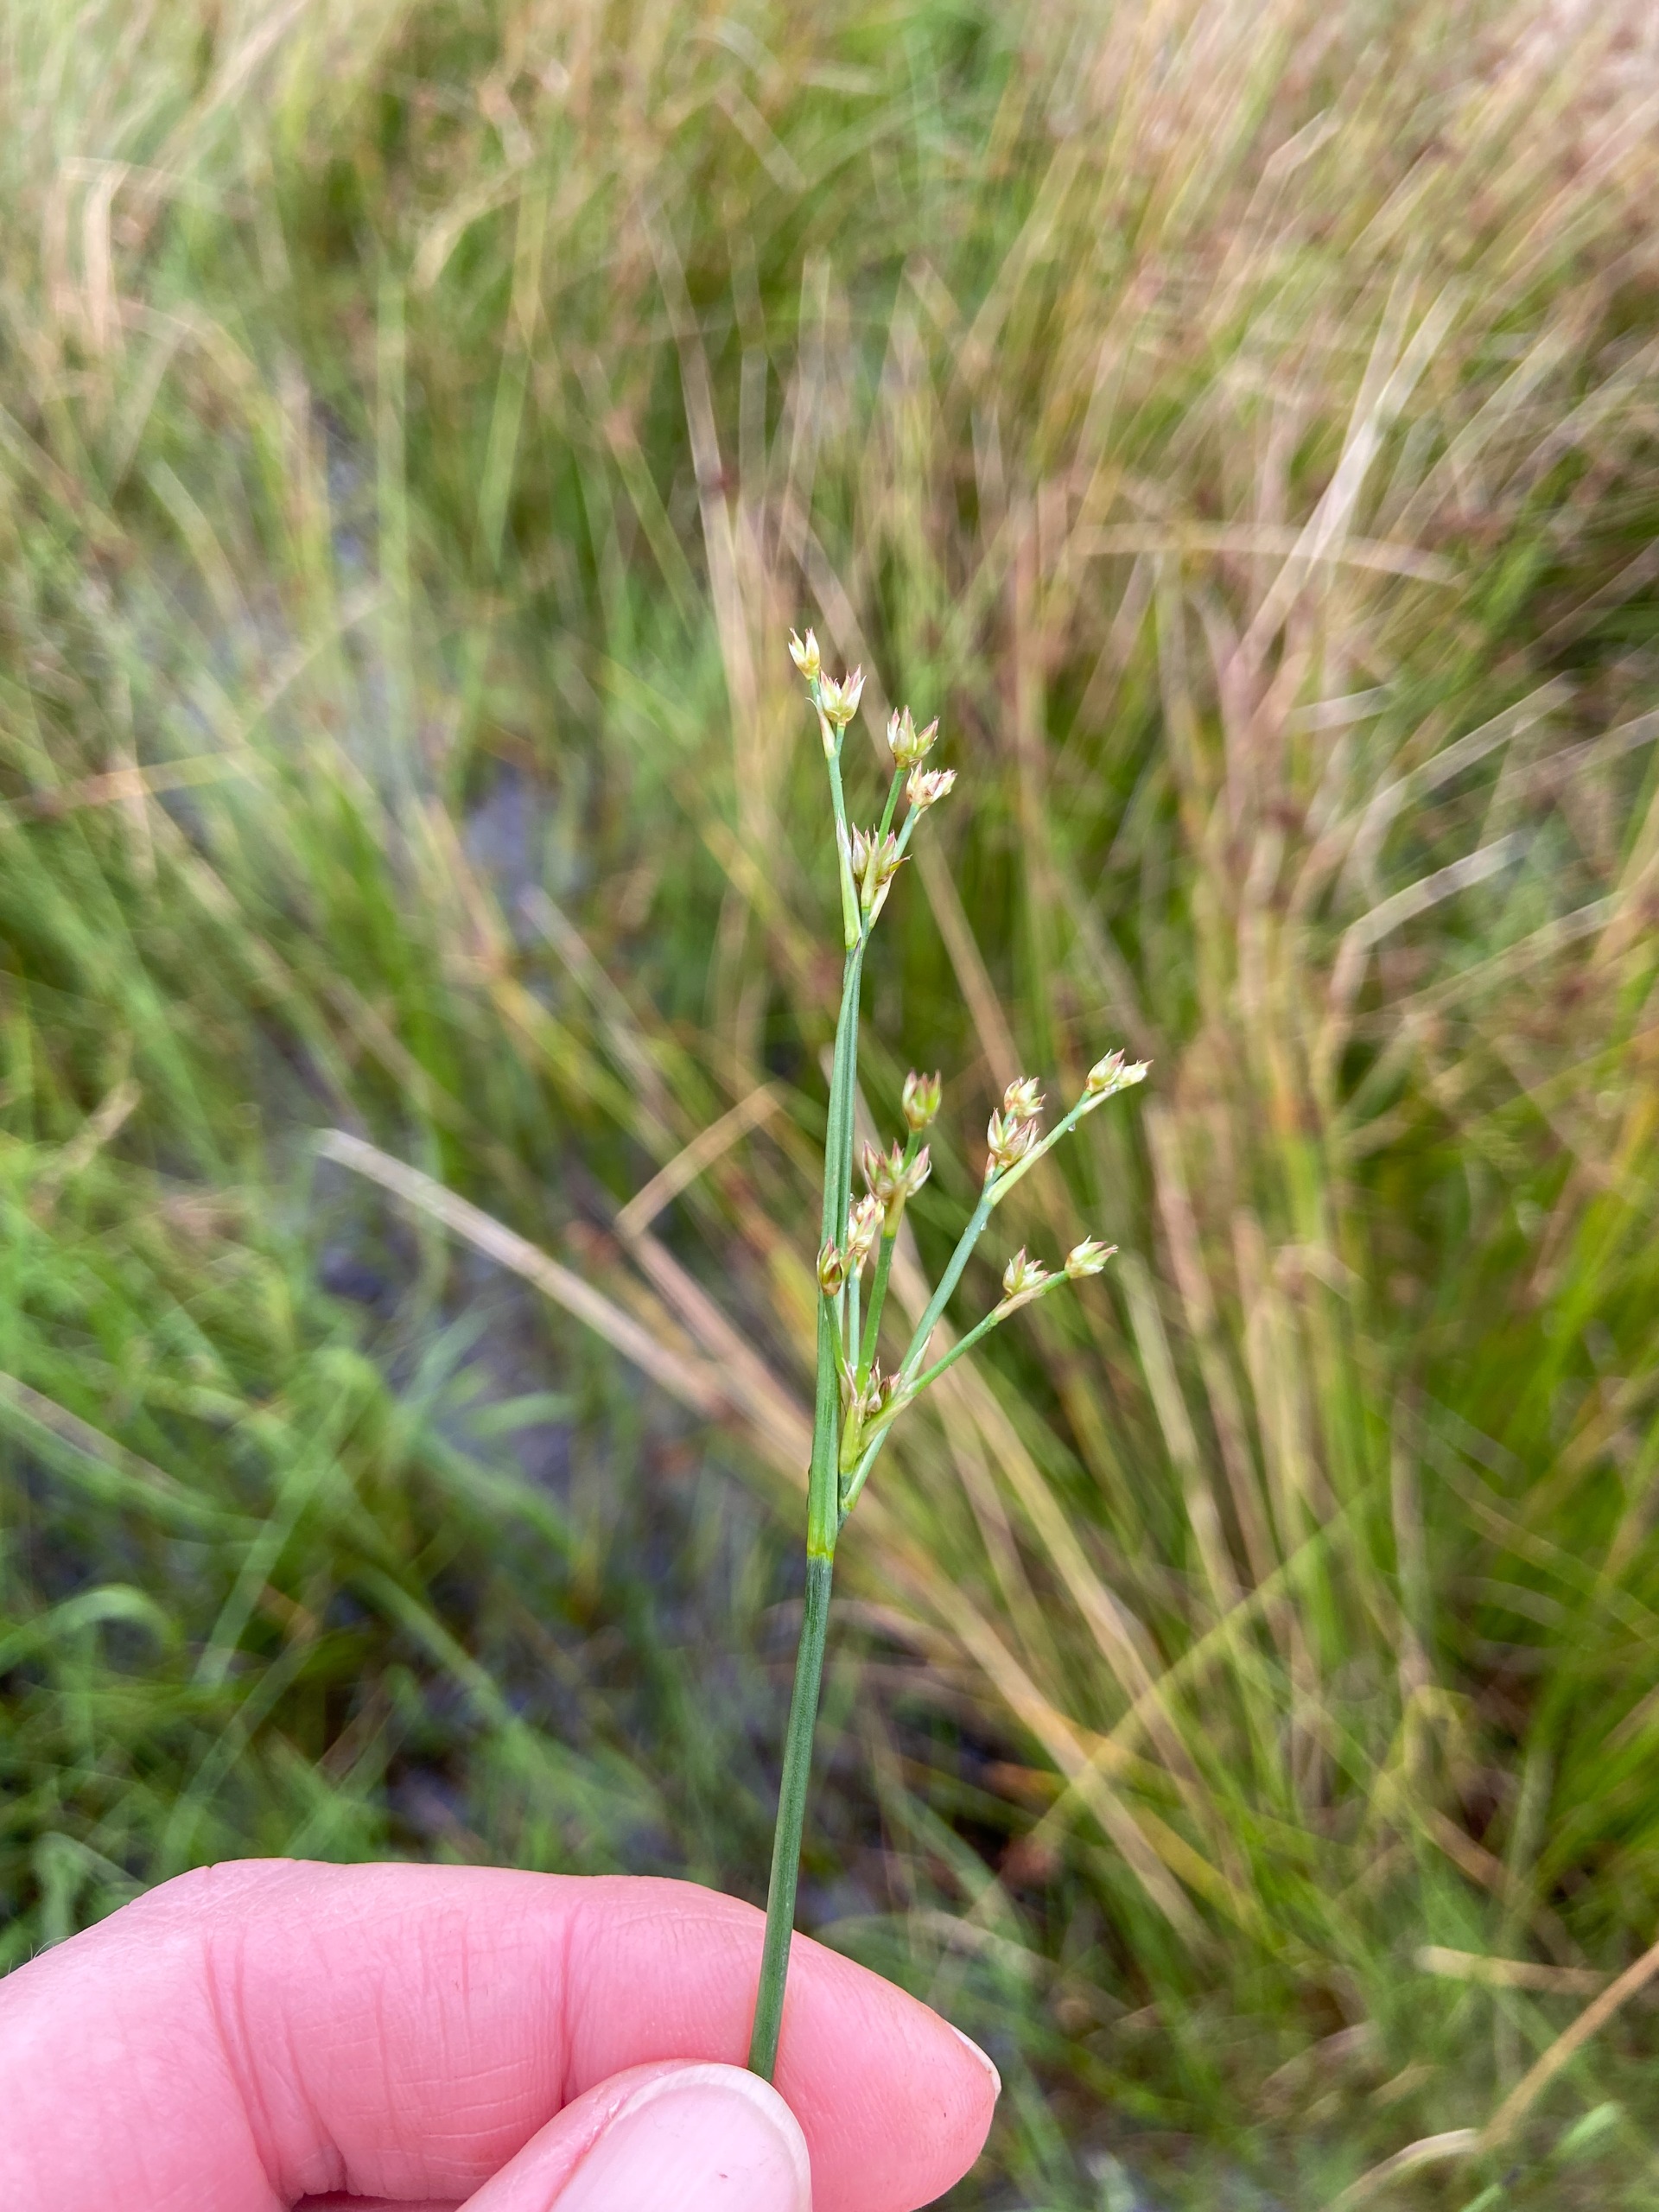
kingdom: Plantae
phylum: Tracheophyta
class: Liliopsida
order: Poales
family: Juncaceae
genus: Juncus
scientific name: Juncus articulatus
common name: Glanskapslet siv
